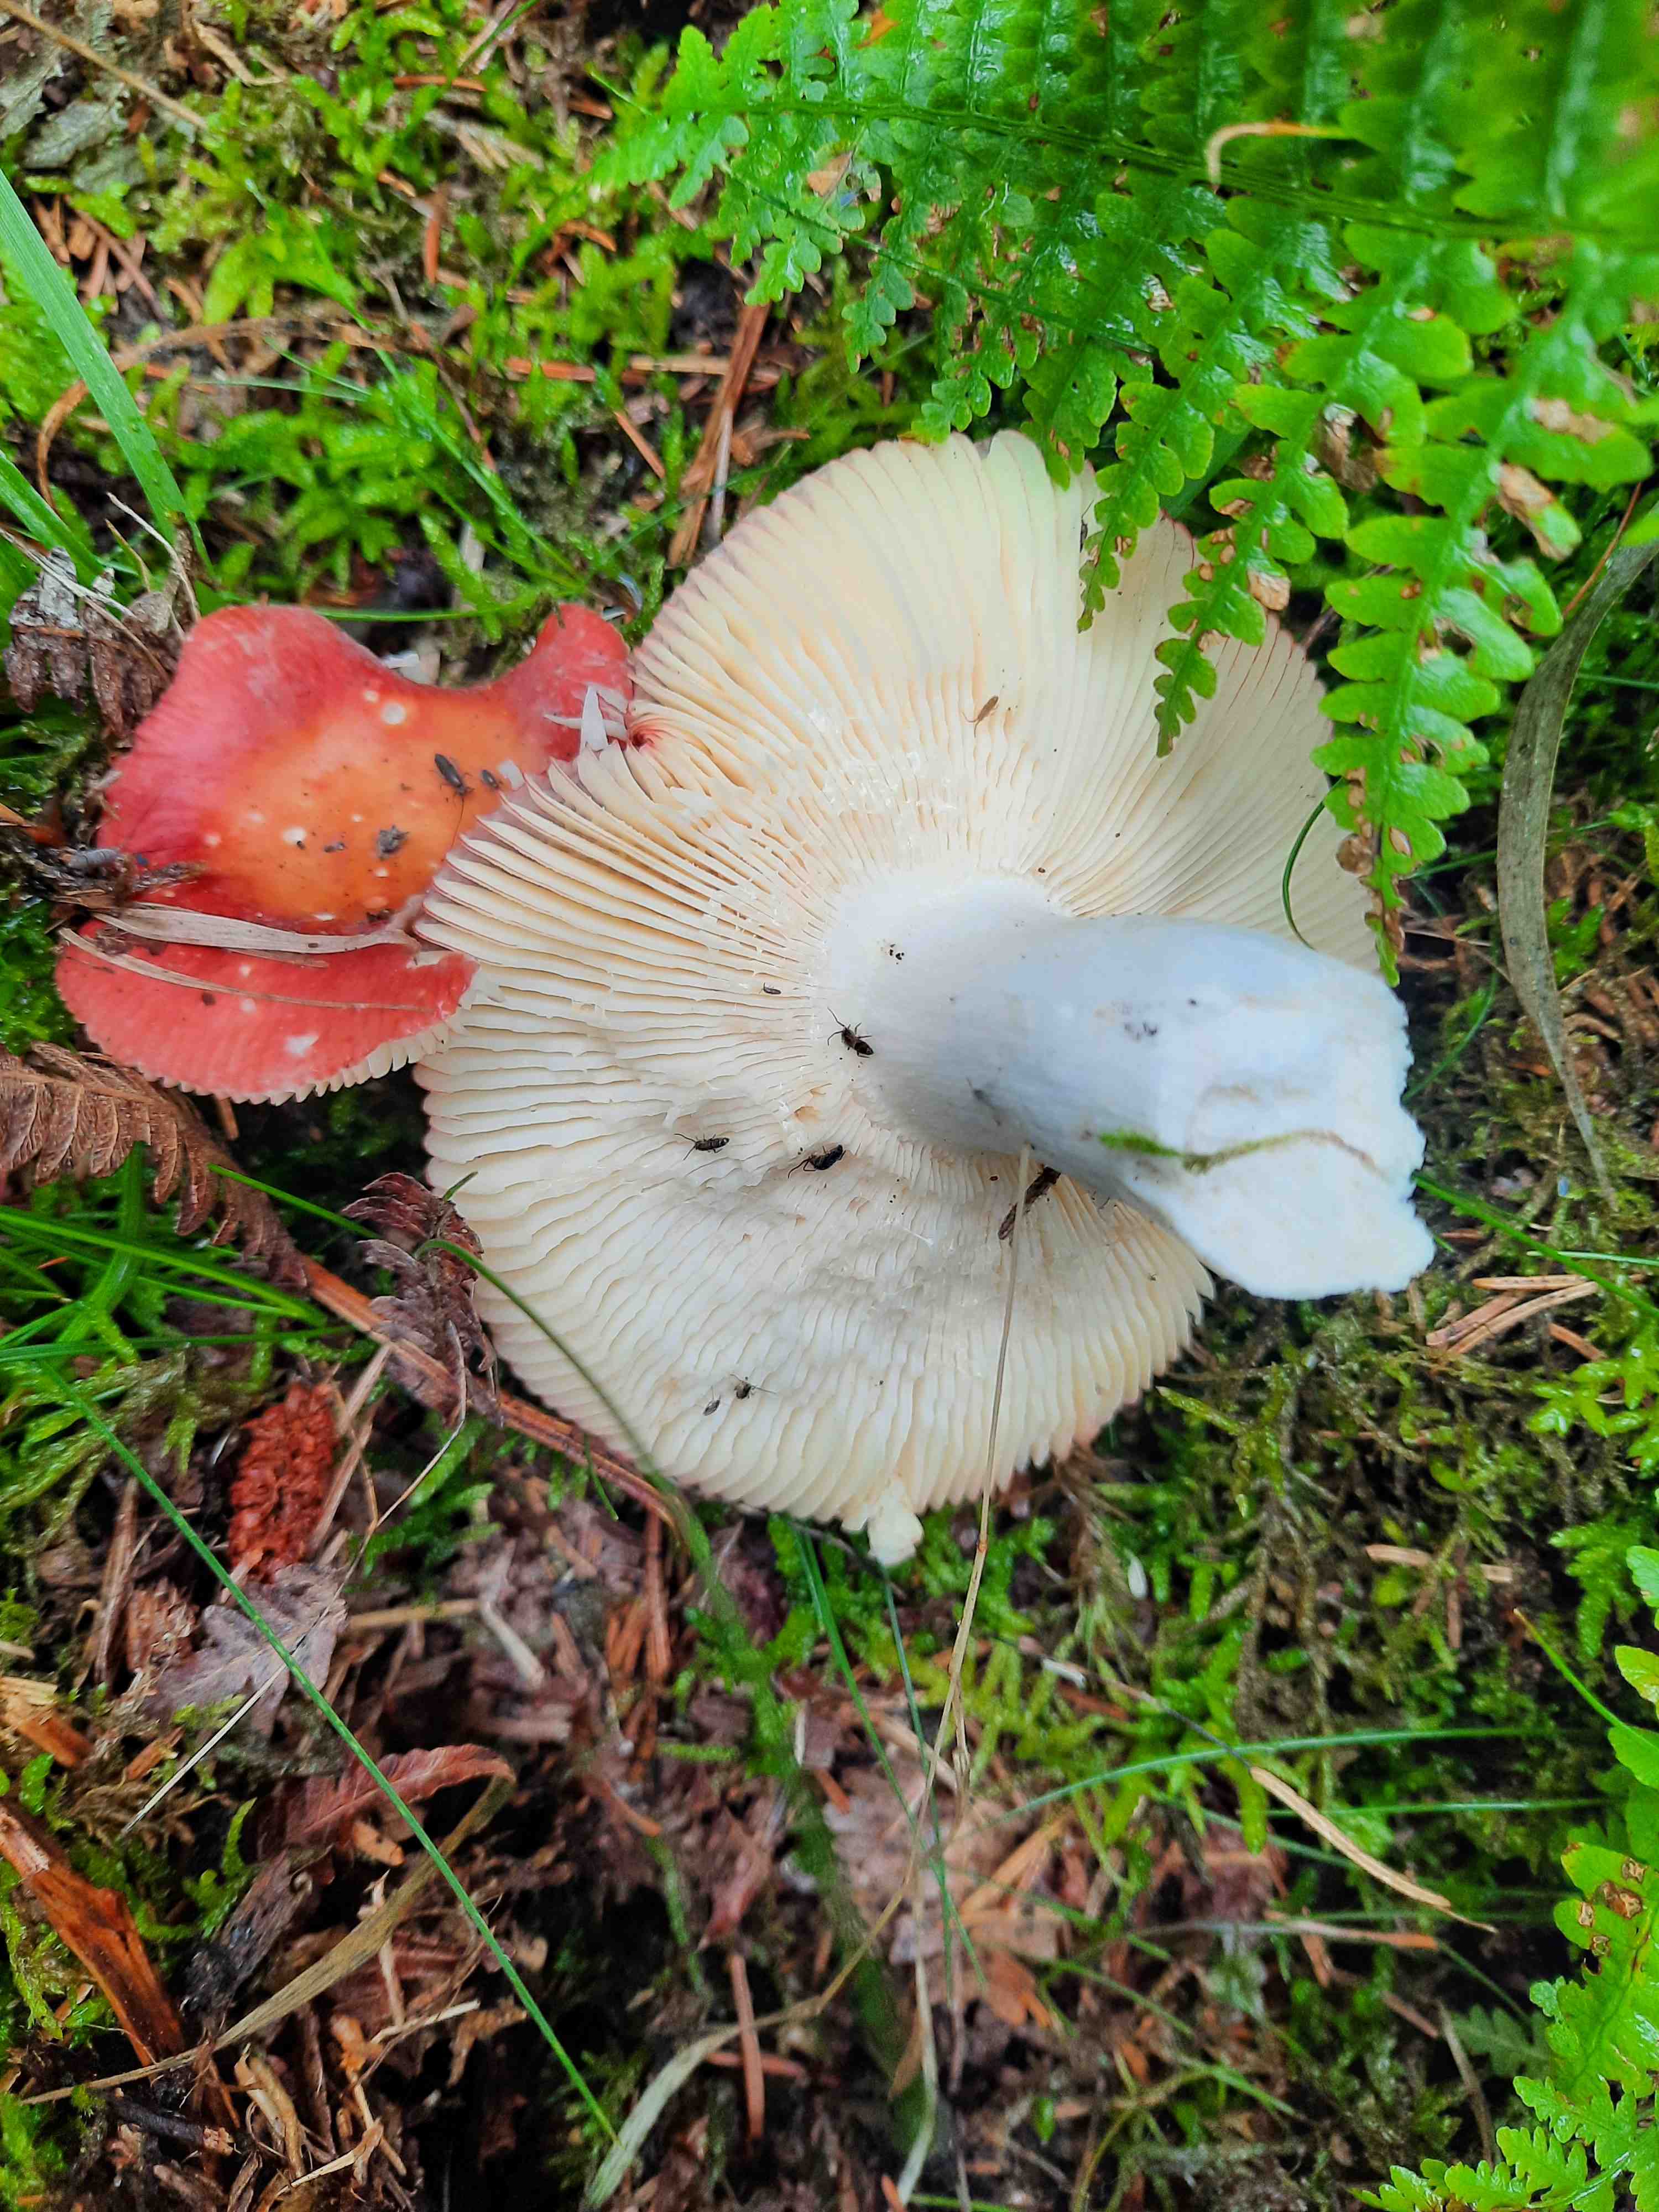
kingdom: Fungi
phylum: Basidiomycota
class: Agaricomycetes
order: Russulales
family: Russulaceae
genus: Russula
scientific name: Russula
